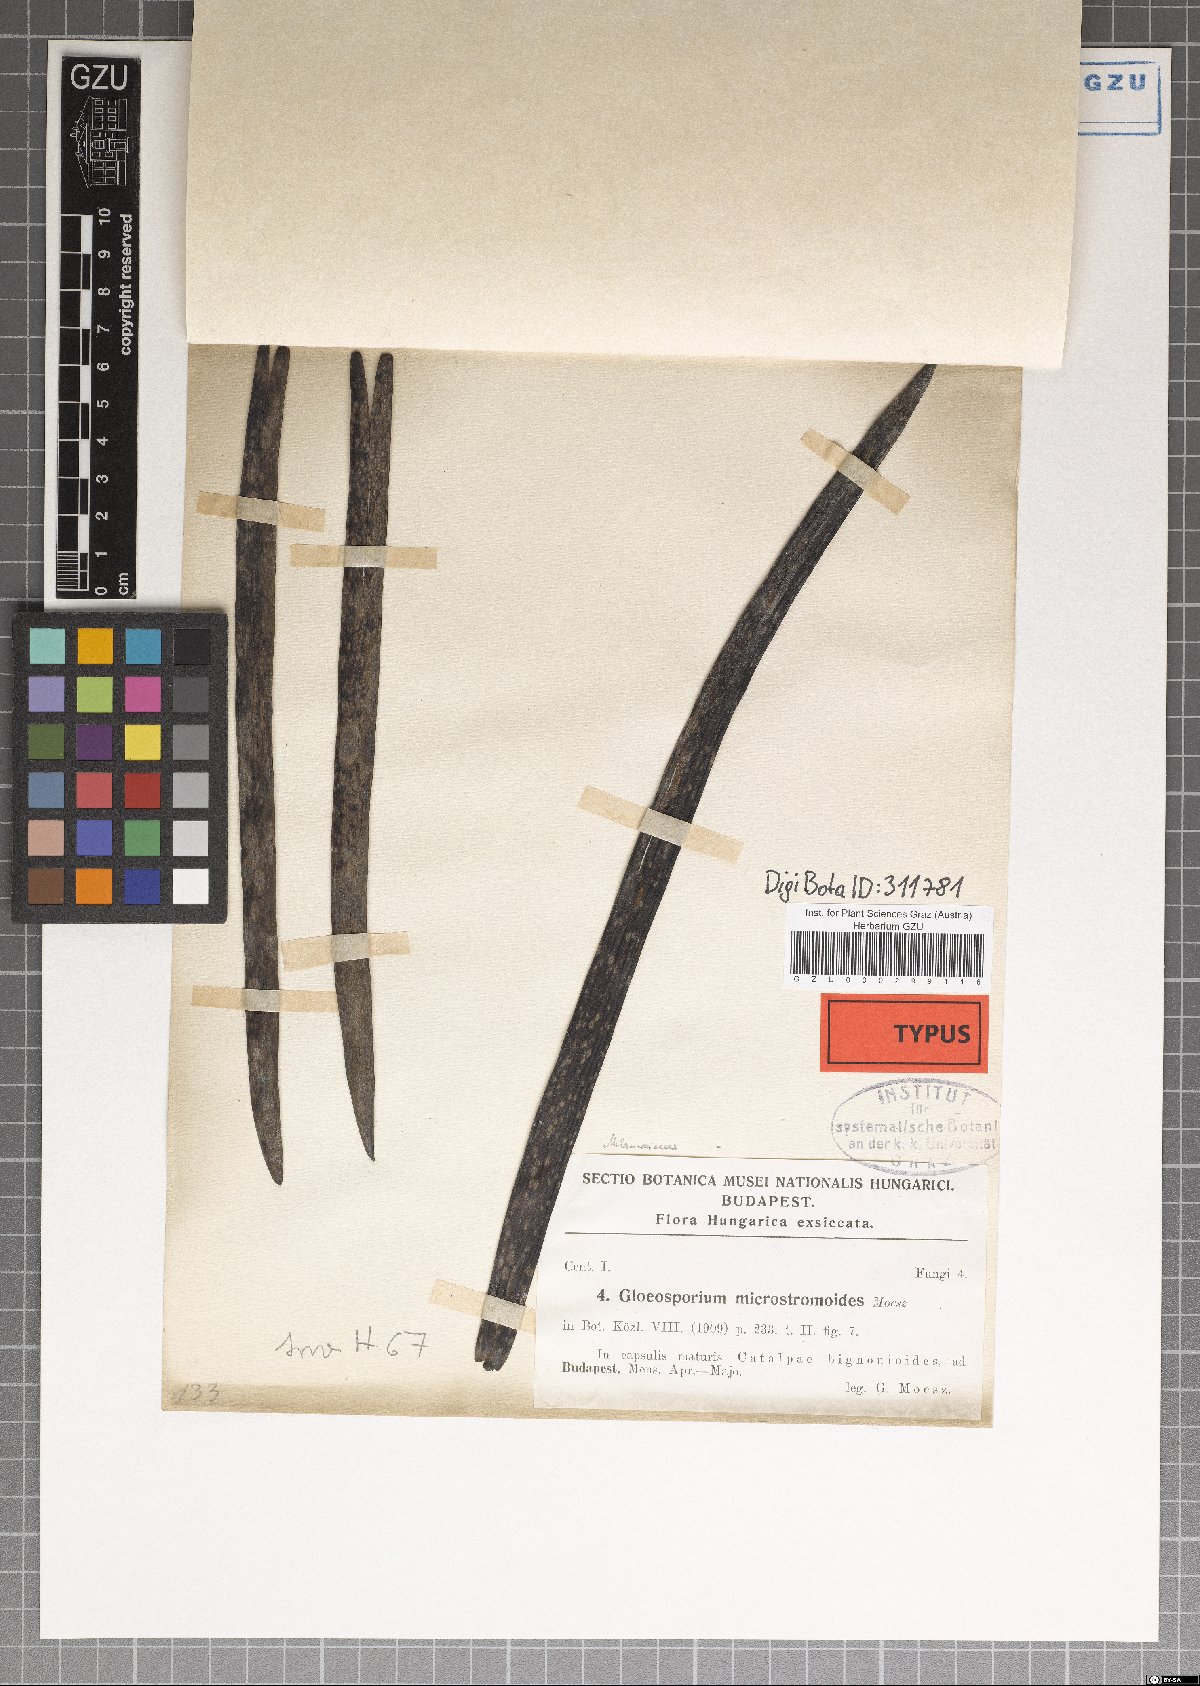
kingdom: Fungi
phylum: Ascomycota
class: Dothideomycetes
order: Dothideales
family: Saccotheciaceae
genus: Kabatiella
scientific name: Kabatiella microstromoides
